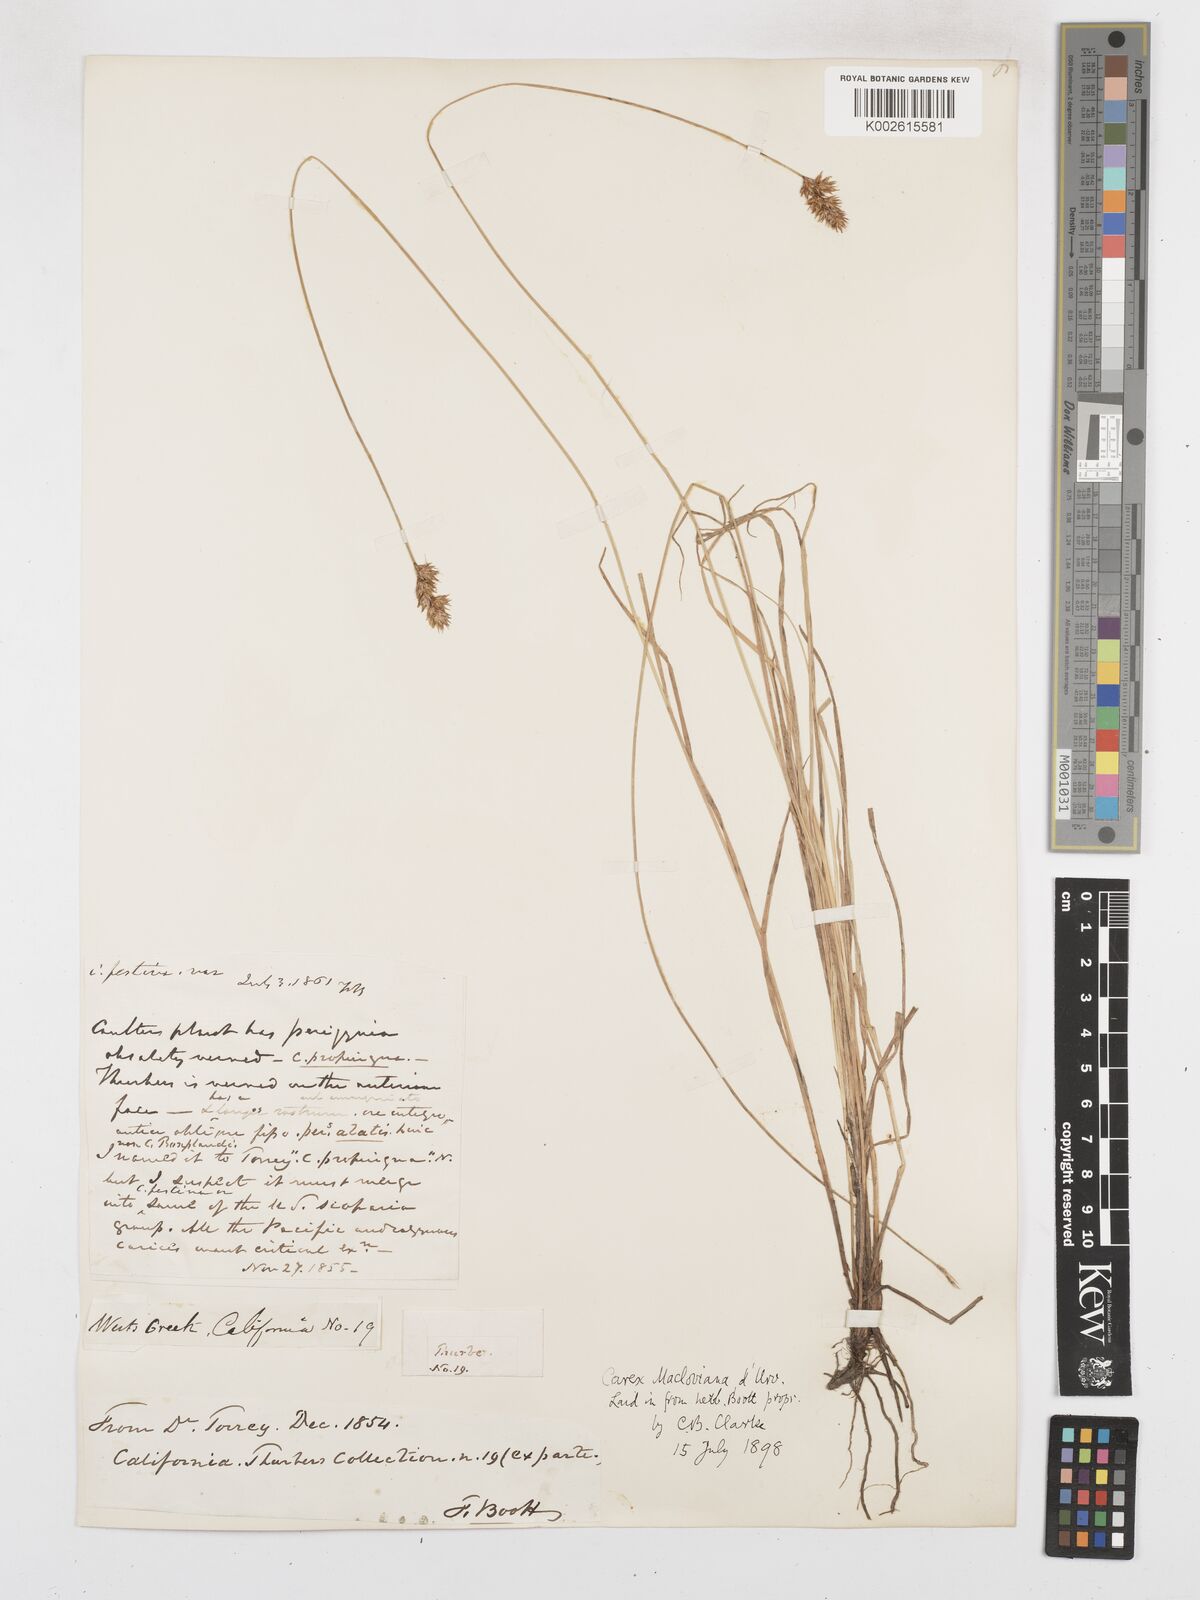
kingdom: Plantae
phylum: Tracheophyta
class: Liliopsida
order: Poales
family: Cyperaceae
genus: Carex
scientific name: Carex macloviana
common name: Falkland island sedge
